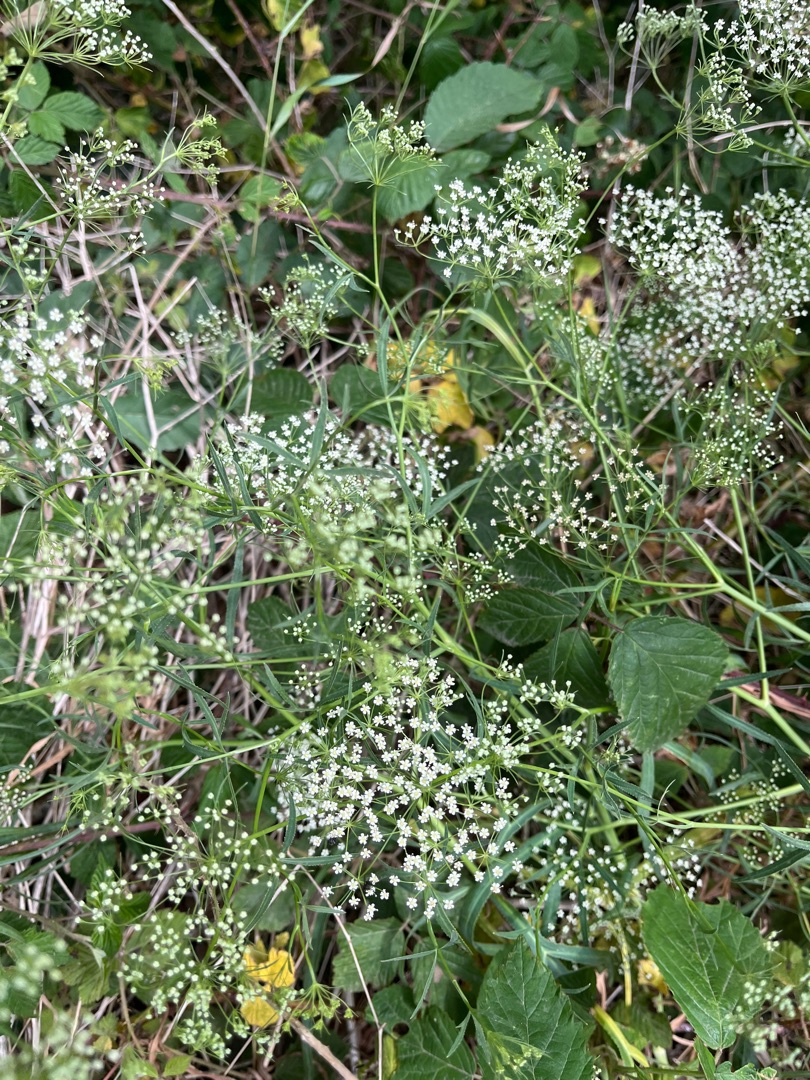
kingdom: Plantae
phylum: Tracheophyta
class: Magnoliopsida
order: Apiales
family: Apiaceae
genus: Falcaria
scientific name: Falcaria vulgaris
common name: Seglblad
